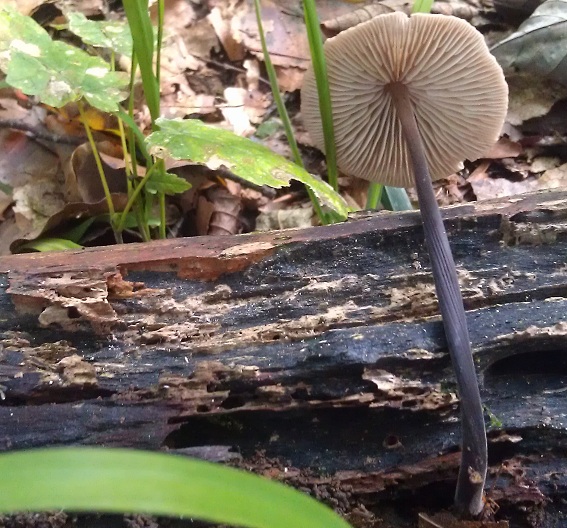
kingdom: Fungi
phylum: Basidiomycota
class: Agaricomycetes
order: Agaricales
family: Omphalotaceae
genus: Mycetinis
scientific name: Mycetinis alliaceus
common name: stor løghat
